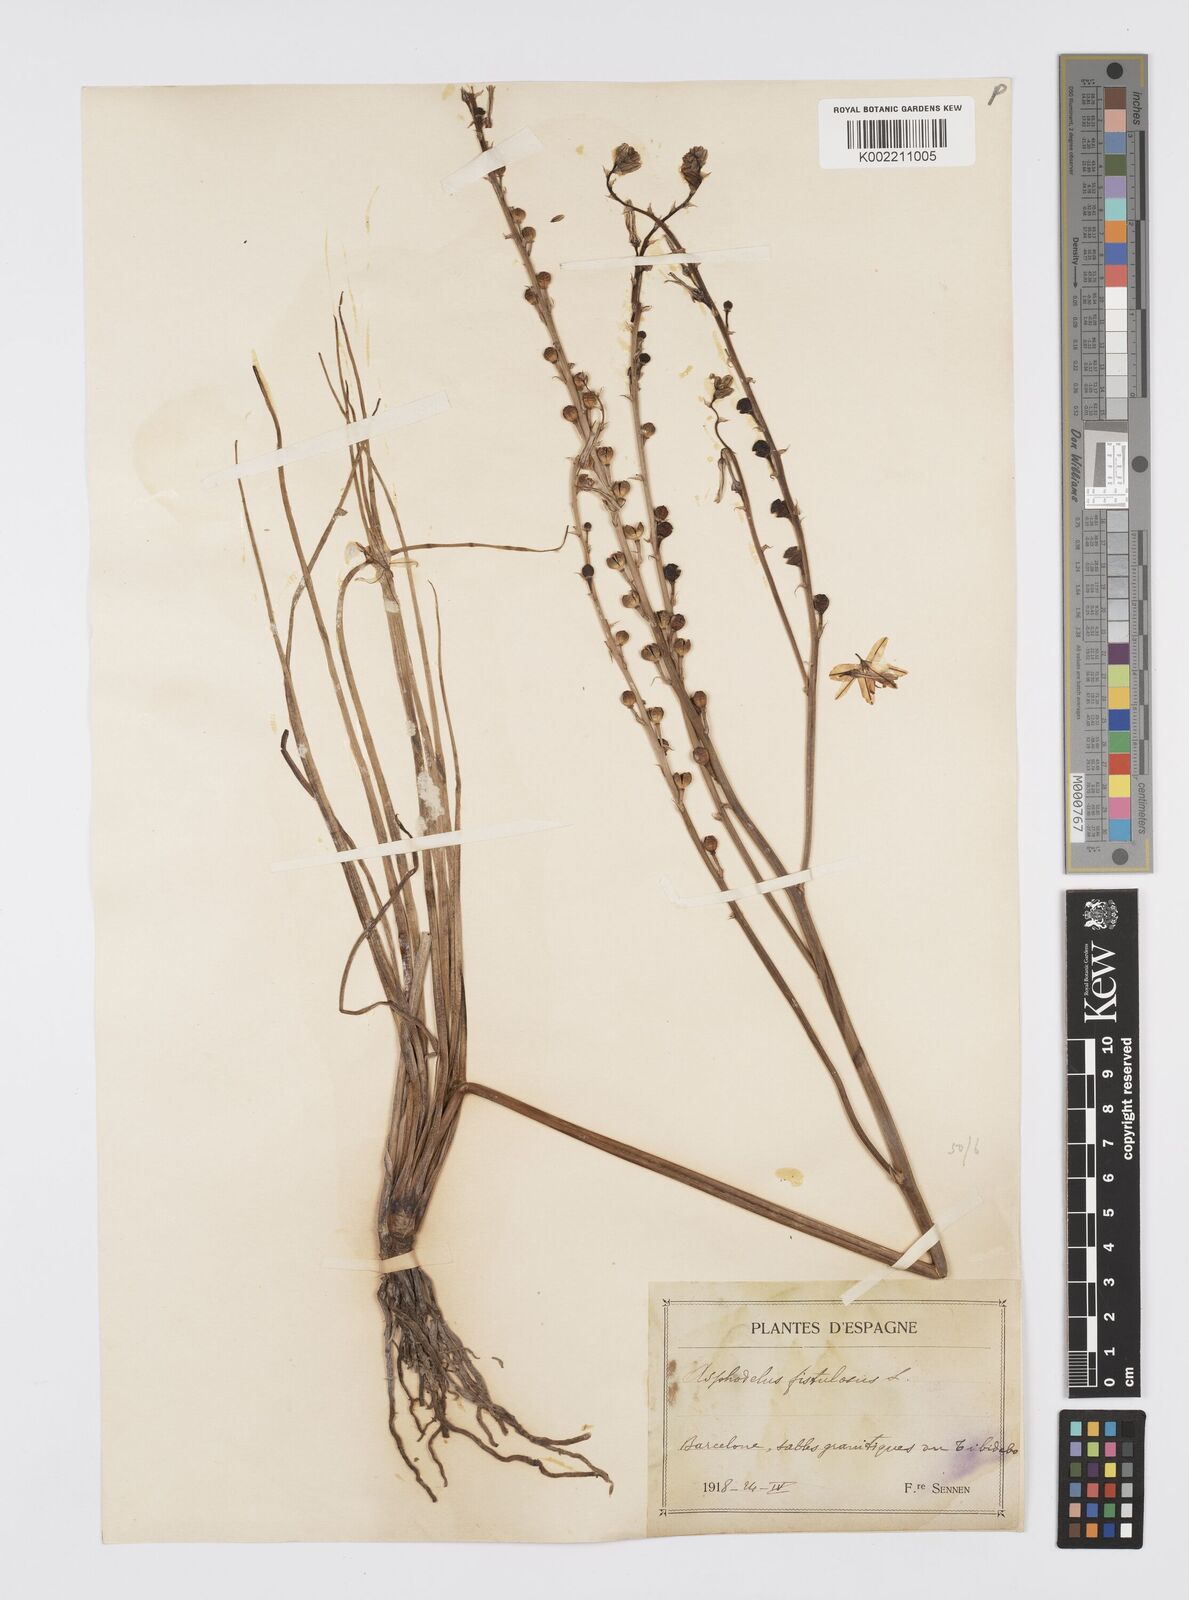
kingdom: Plantae
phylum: Tracheophyta
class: Liliopsida
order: Asparagales
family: Asphodelaceae
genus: Asphodelus
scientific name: Asphodelus fistulosus
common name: Onionweed
